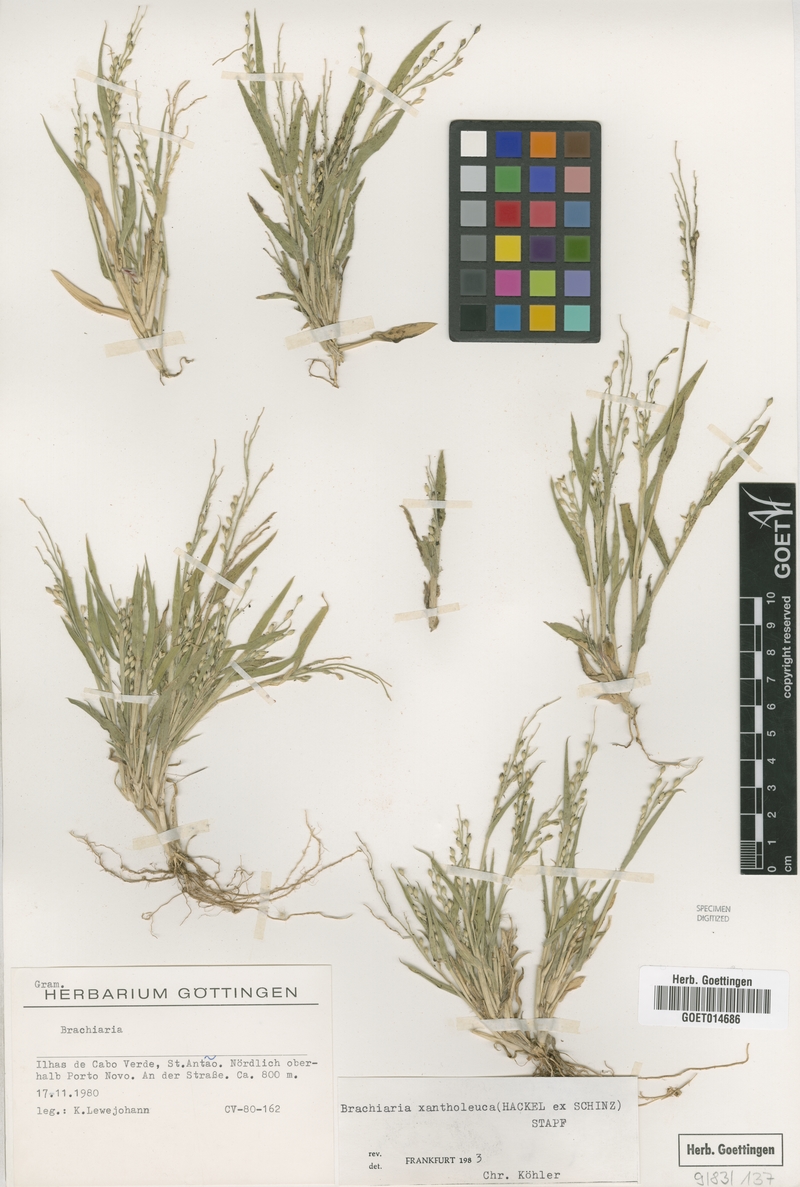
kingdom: Plantae
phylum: Tracheophyta
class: Liliopsida
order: Poales
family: Poaceae
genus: Urochloa
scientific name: Urochloa xantholeuca
